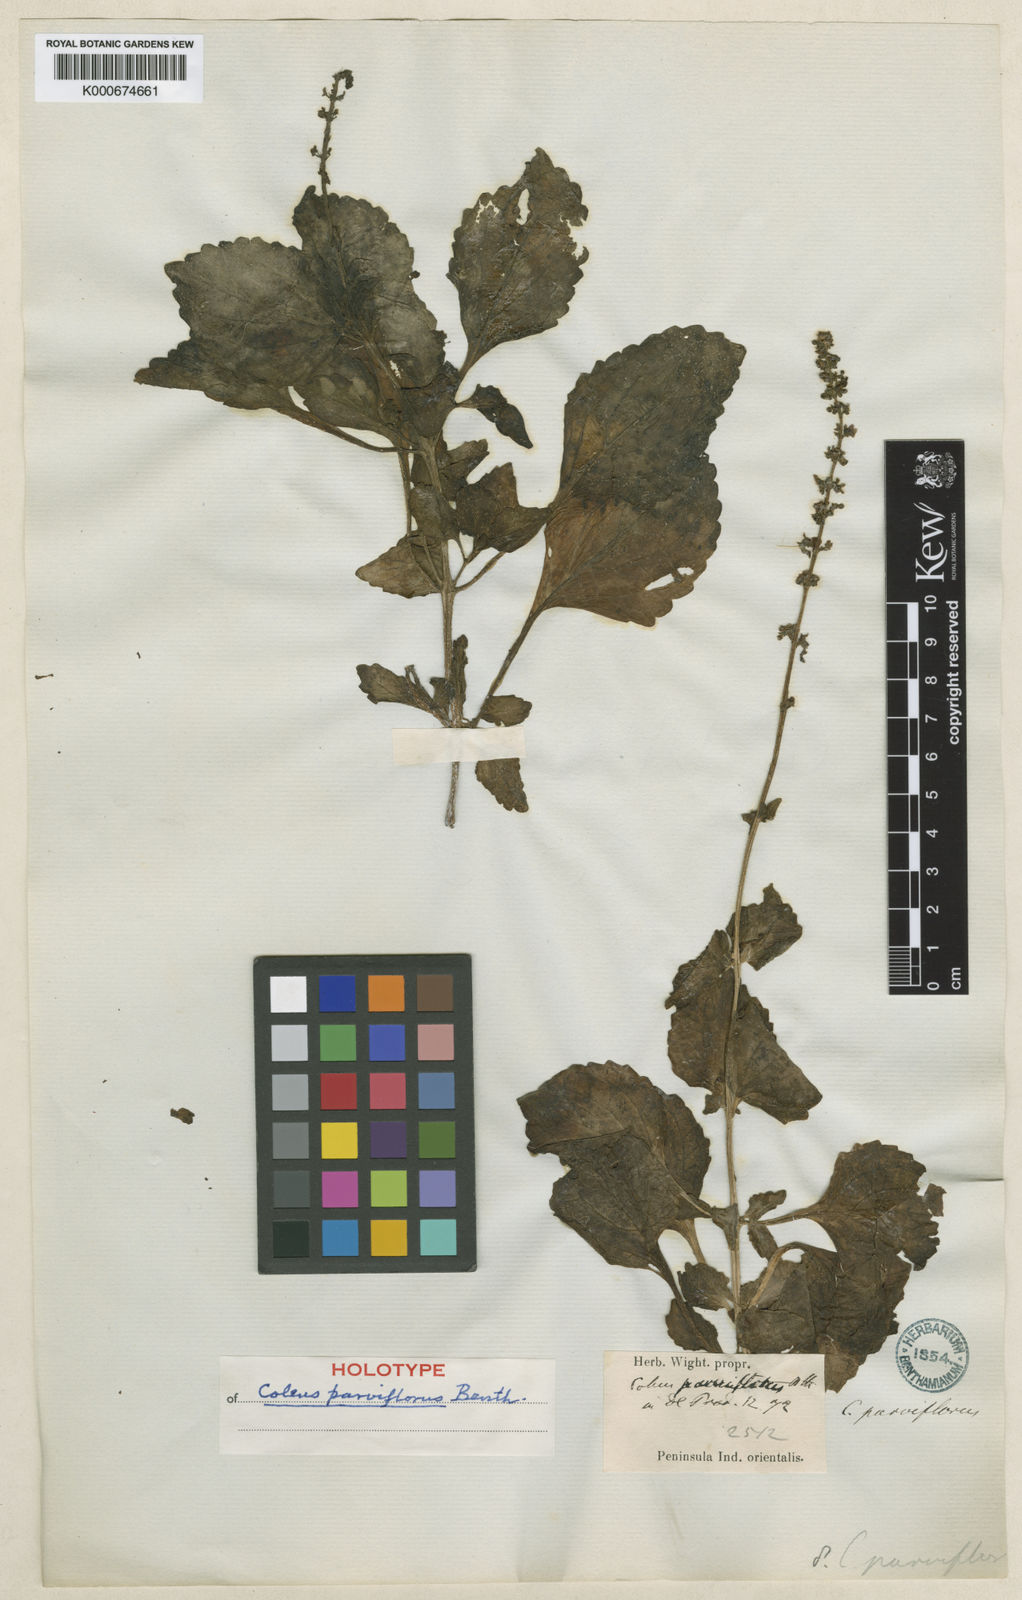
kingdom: Plantae
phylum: Tracheophyta
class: Magnoliopsida
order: Lamiales
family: Lamiaceae
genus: Coleus
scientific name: Coleus rotundifolius
